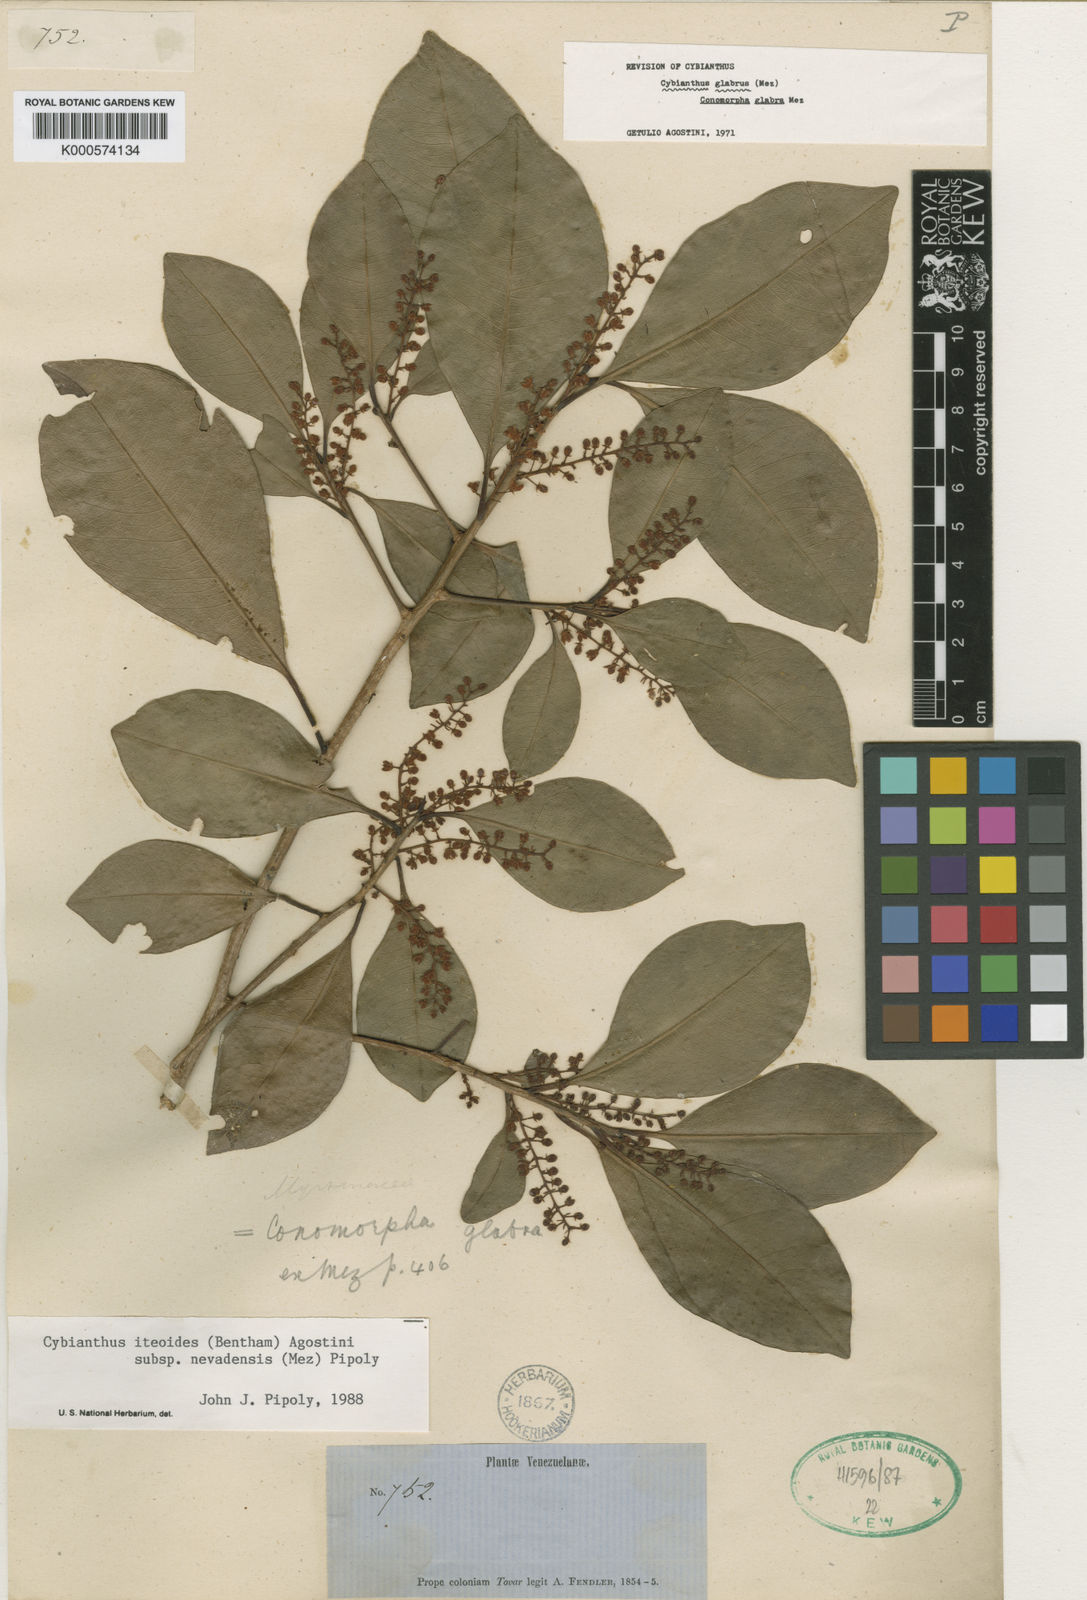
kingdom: Plantae
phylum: Tracheophyta
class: Magnoliopsida
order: Ericales
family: Primulaceae
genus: Cybianthus
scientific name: Cybianthus iteoides
